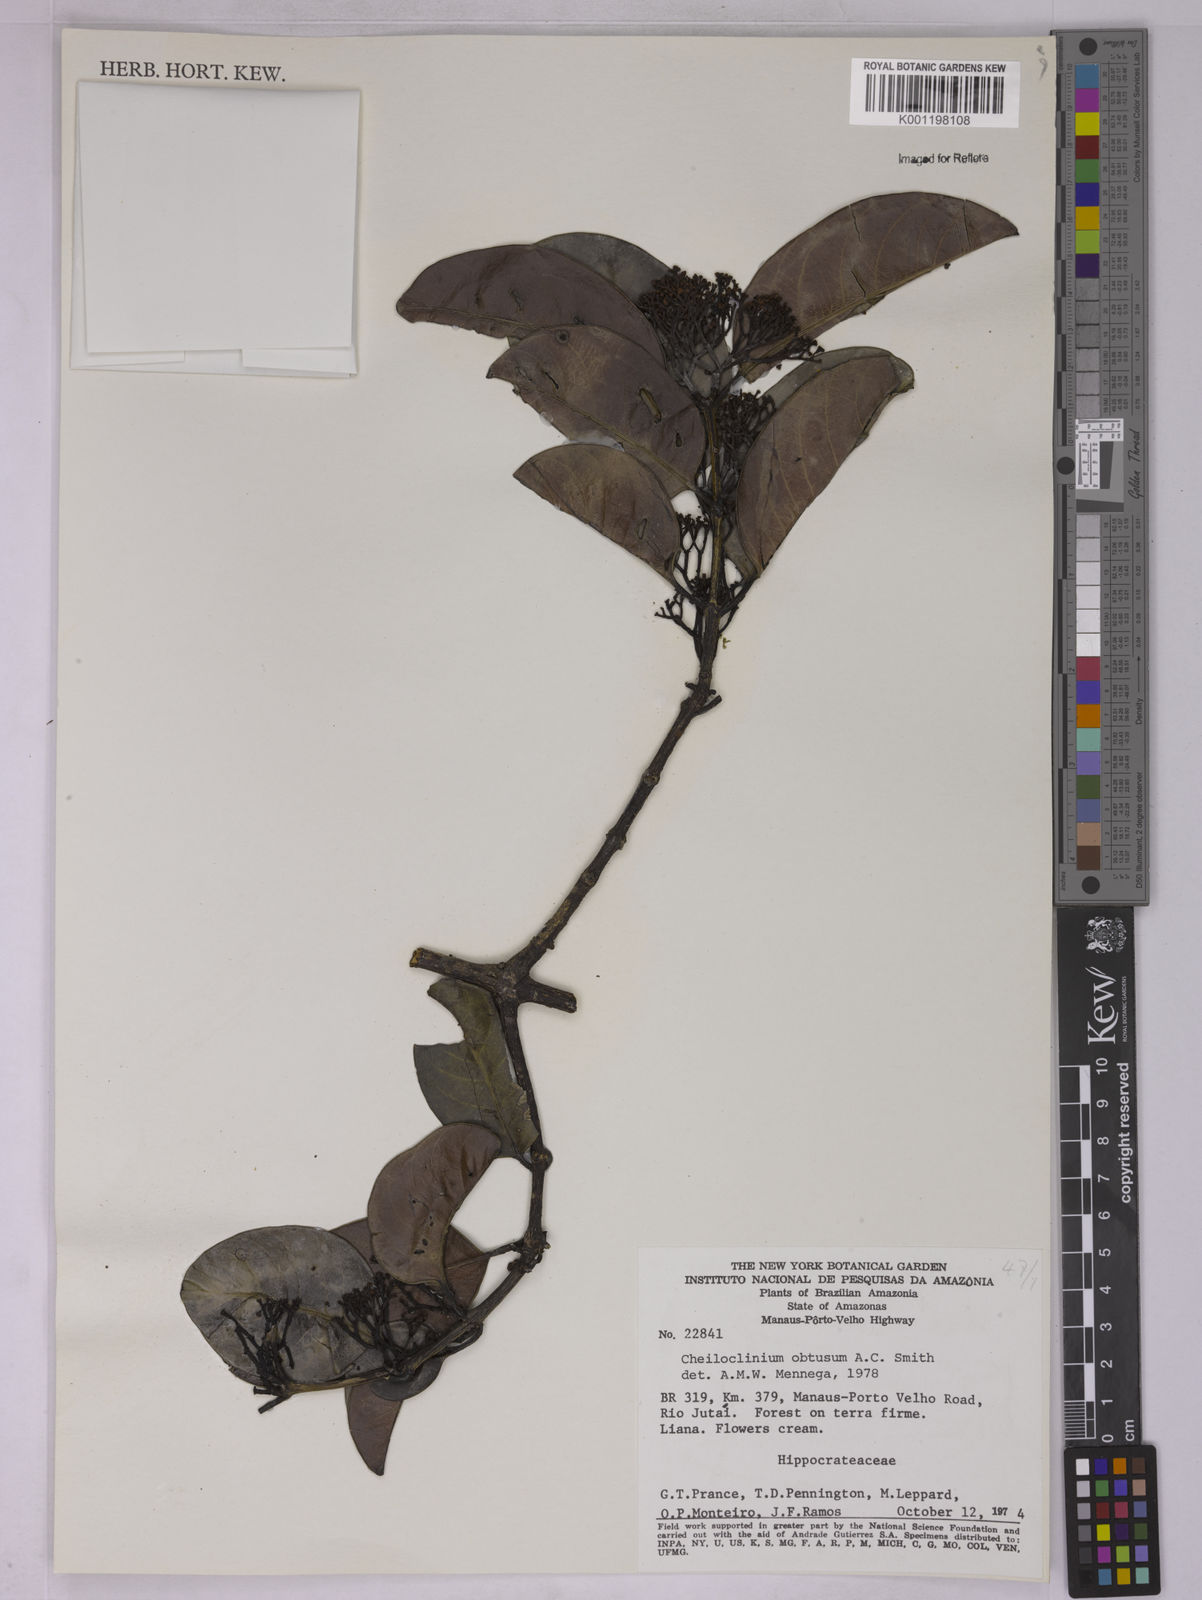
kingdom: Plantae
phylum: Tracheophyta
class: Magnoliopsida
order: Celastrales
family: Celastraceae
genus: Cheiloclinium
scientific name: Cheiloclinium obtusum
